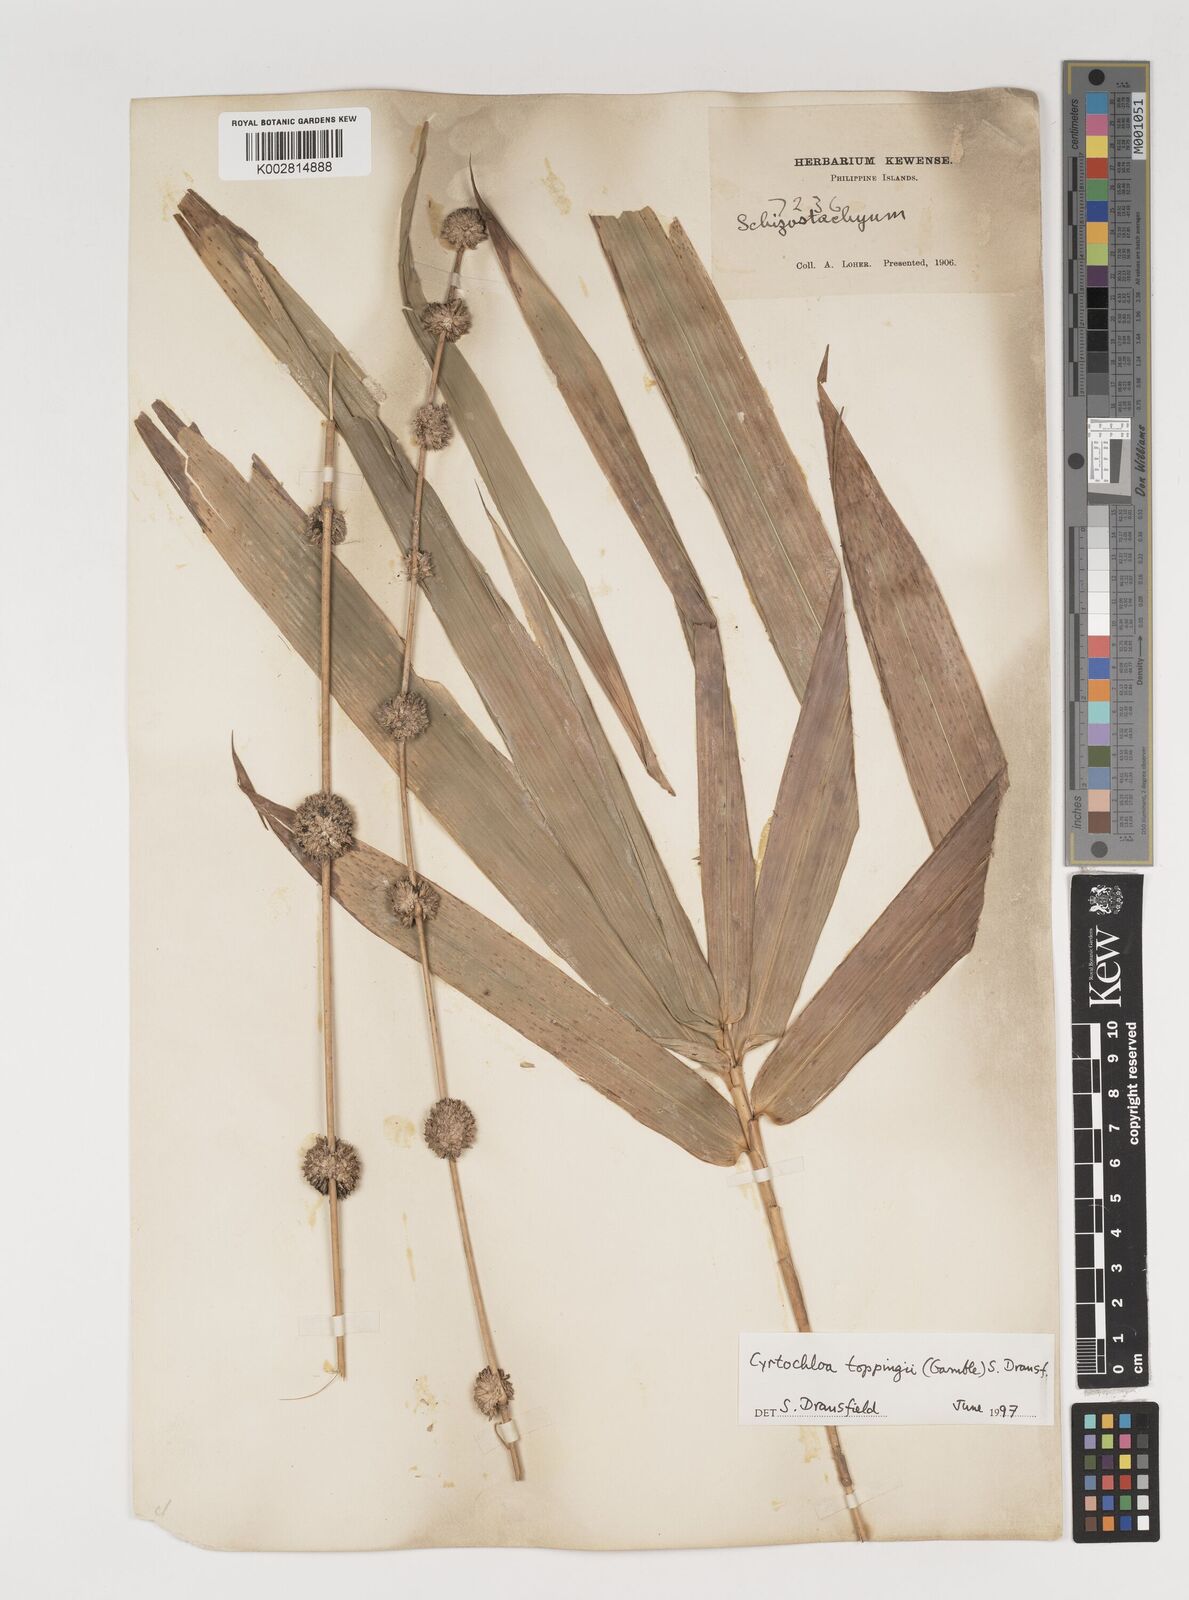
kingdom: Plantae
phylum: Tracheophyta
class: Liliopsida
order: Poales
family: Poaceae
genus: Cyrtochloa
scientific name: Cyrtochloa toppingii
